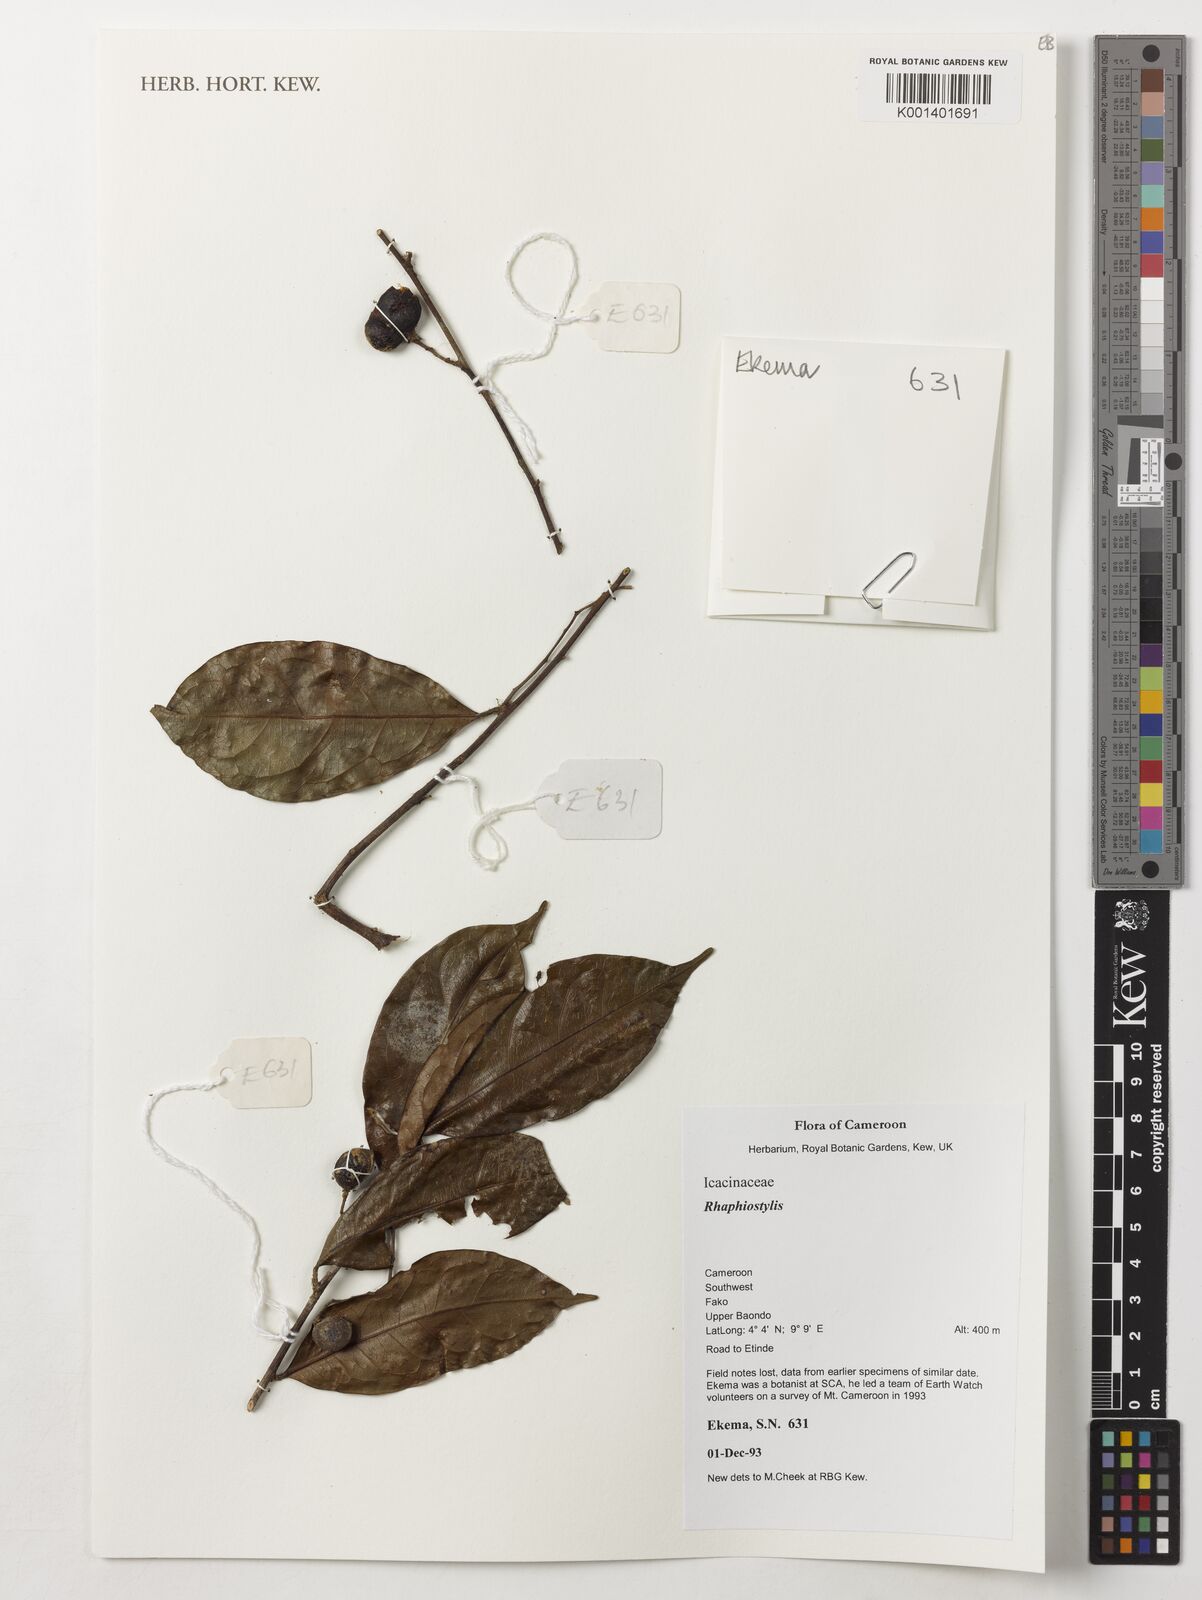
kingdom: Plantae
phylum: Tracheophyta
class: Magnoliopsida
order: Metteniusales
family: Metteniusaceae
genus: Rhaphiostylis
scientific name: Rhaphiostylis
